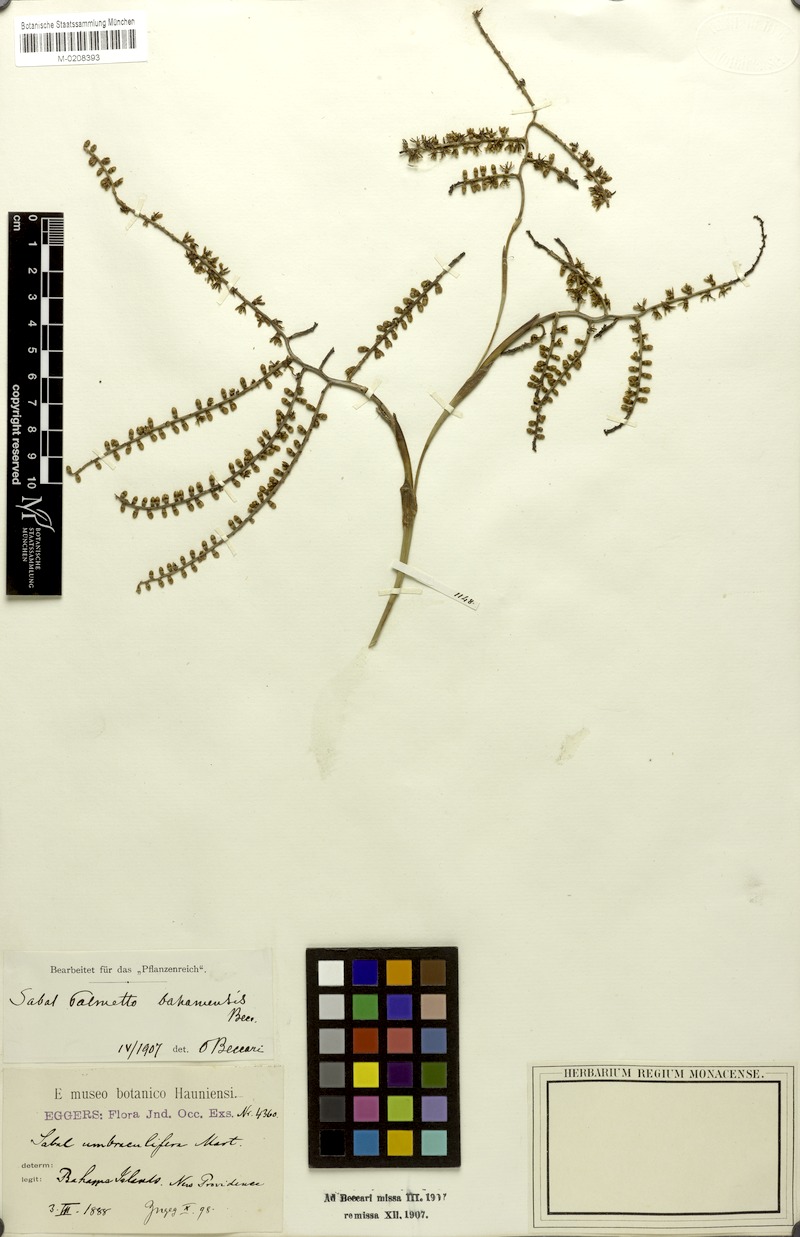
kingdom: Plantae
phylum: Tracheophyta
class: Liliopsida
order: Arecales
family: Arecaceae
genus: Sabal
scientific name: Sabal palmetto
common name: Blue palmetto
